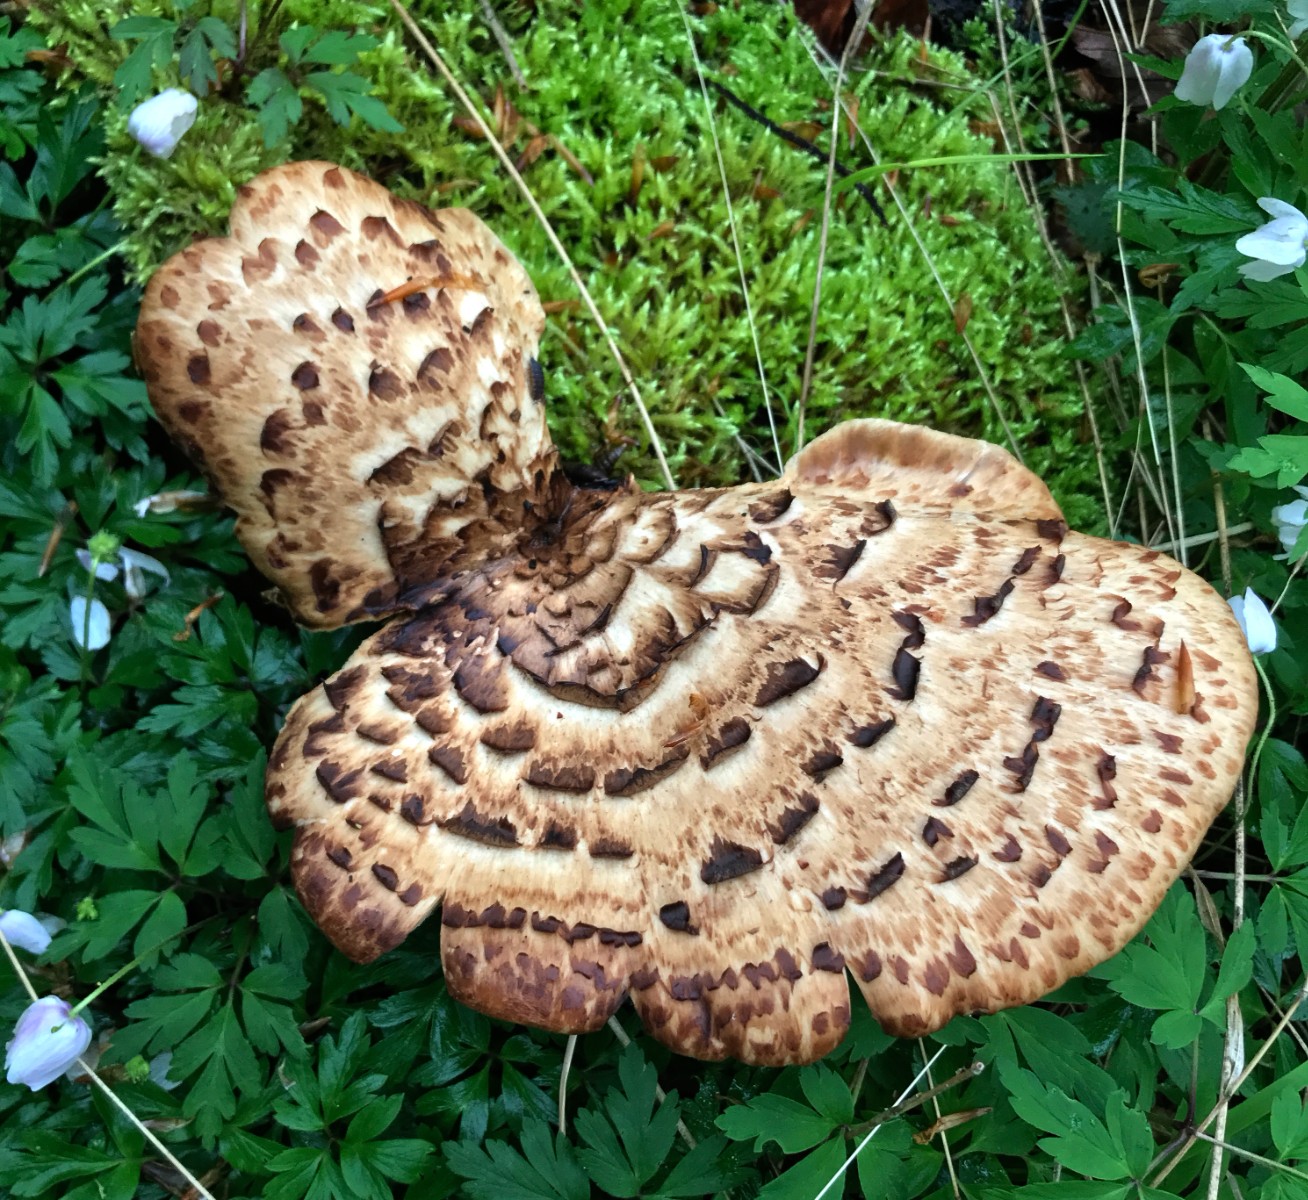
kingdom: Fungi
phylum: Basidiomycota
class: Agaricomycetes
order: Polyporales
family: Polyporaceae
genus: Cerioporus
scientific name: Cerioporus squamosus
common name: skællet stilkporesvamp
